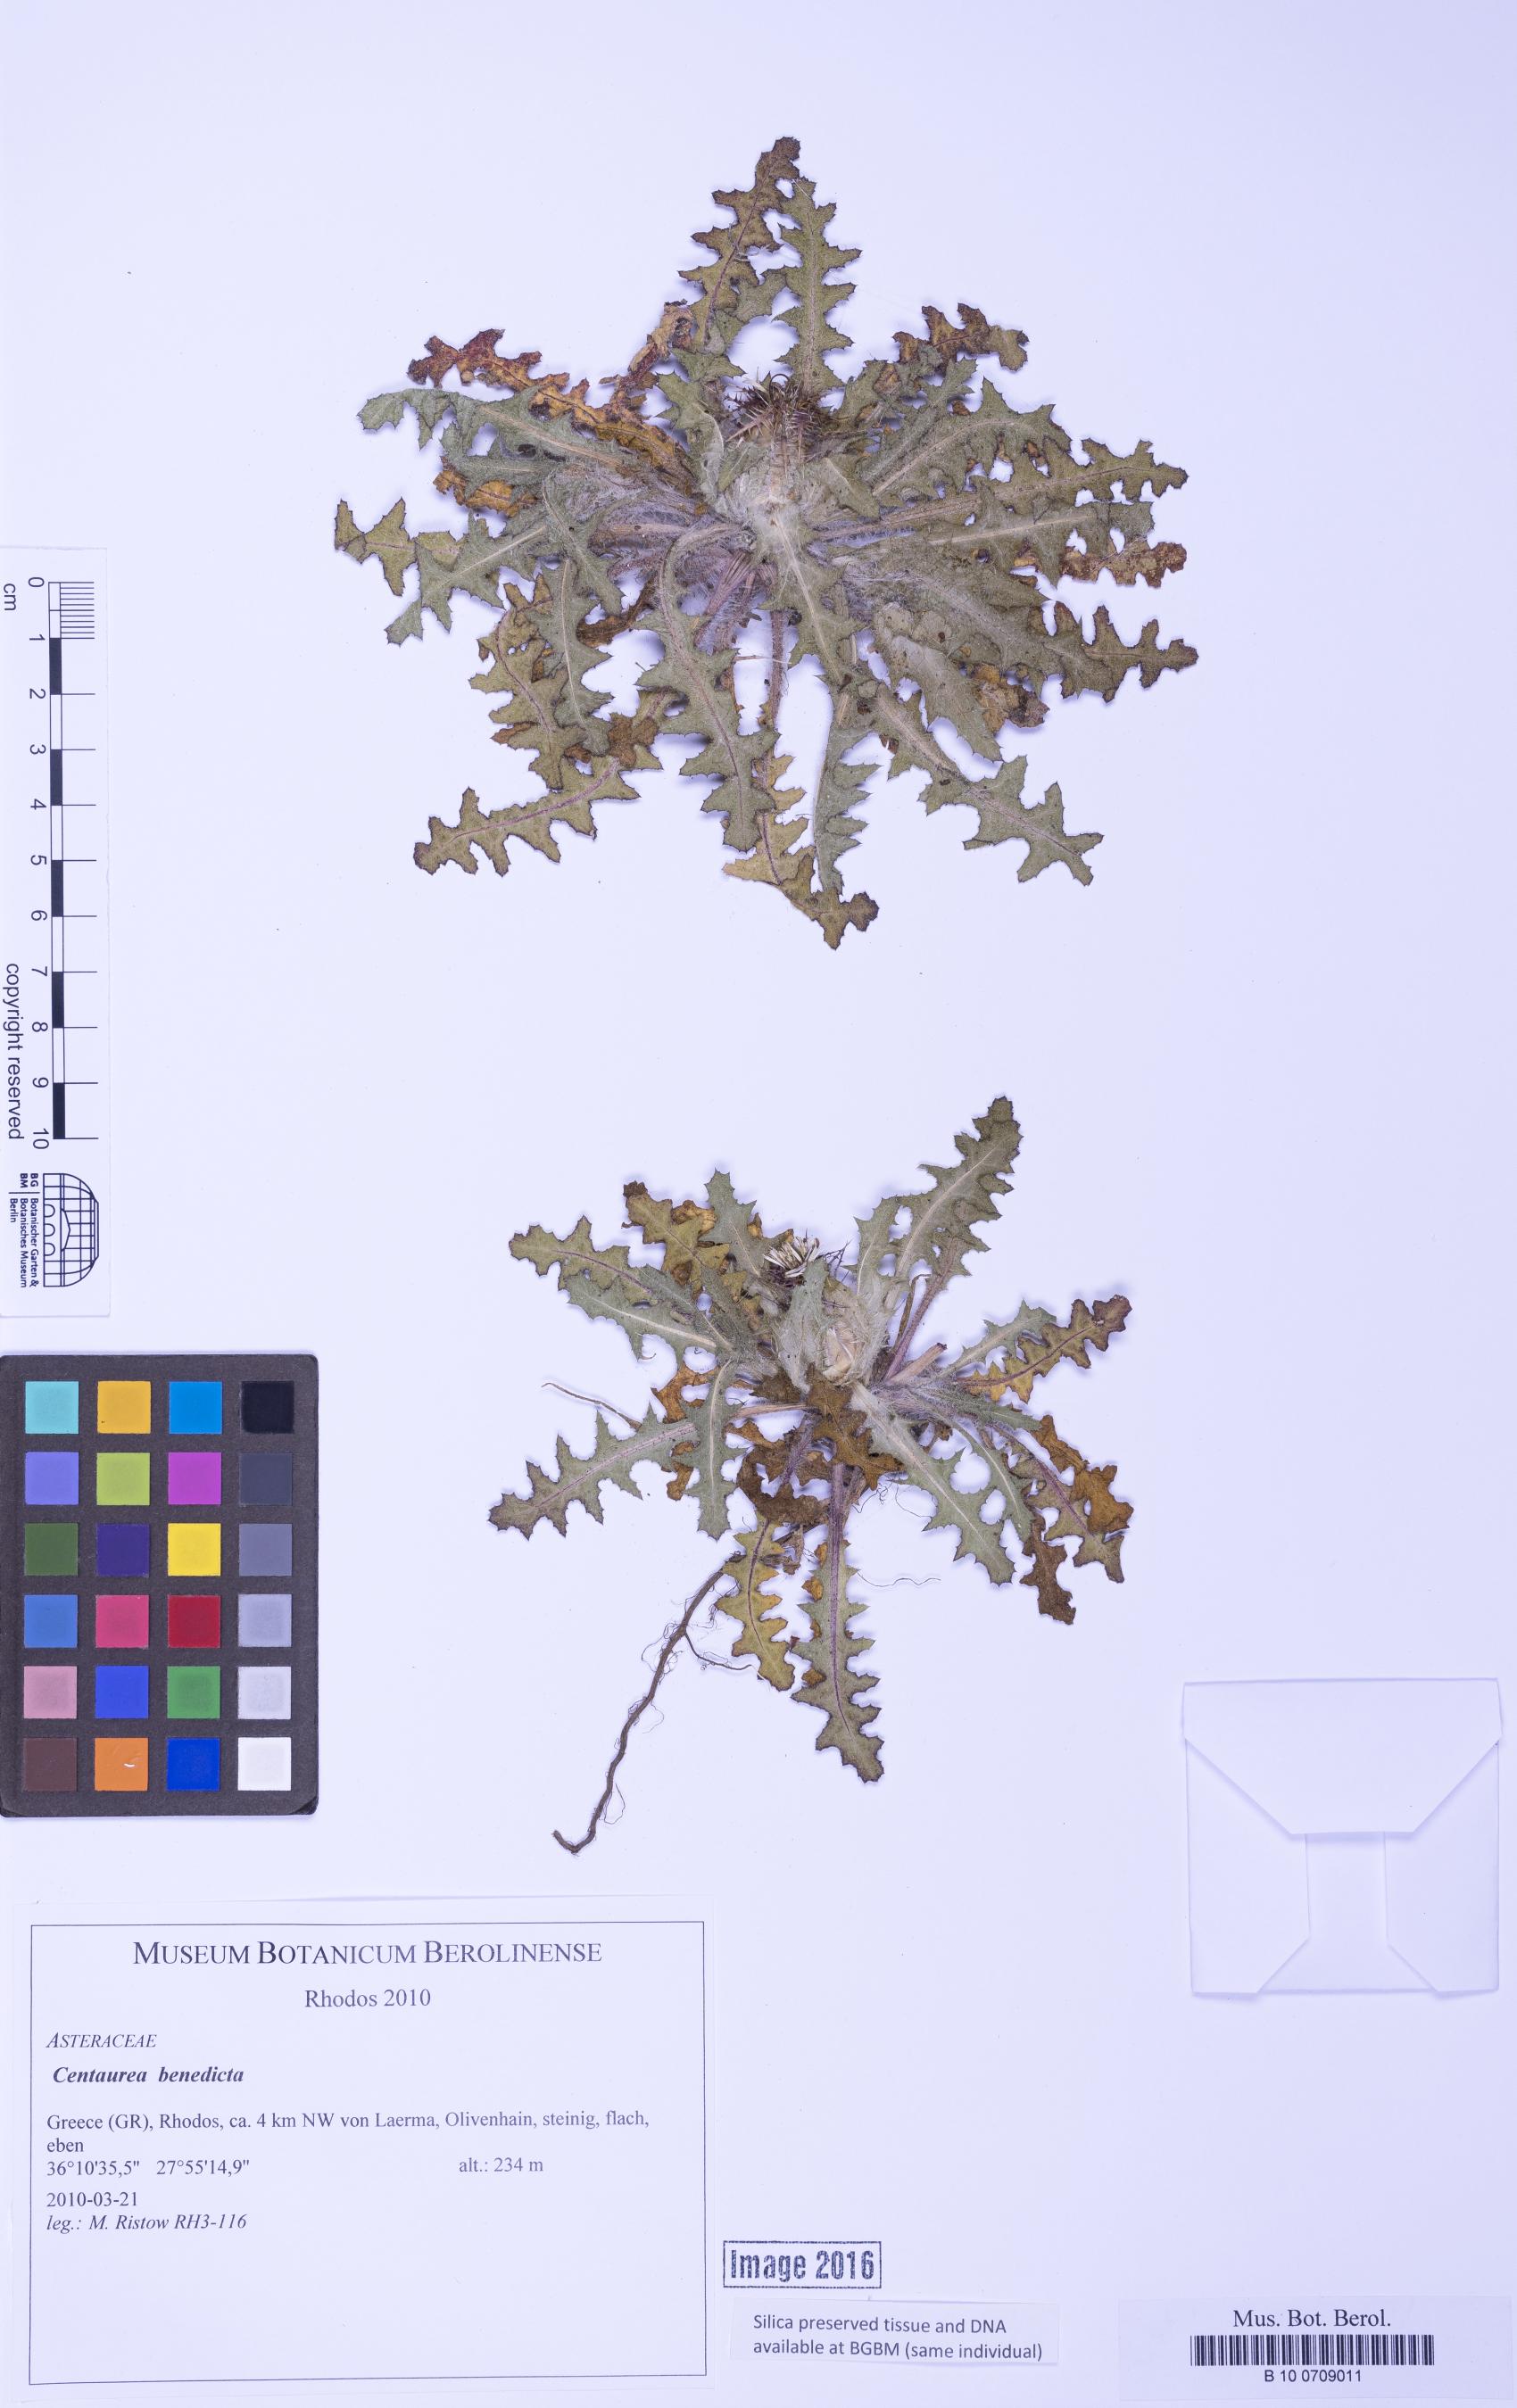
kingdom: Plantae
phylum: Tracheophyta
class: Magnoliopsida
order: Asterales
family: Asteraceae
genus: Centaurea
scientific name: Centaurea benedicta
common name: Blessed thistle
